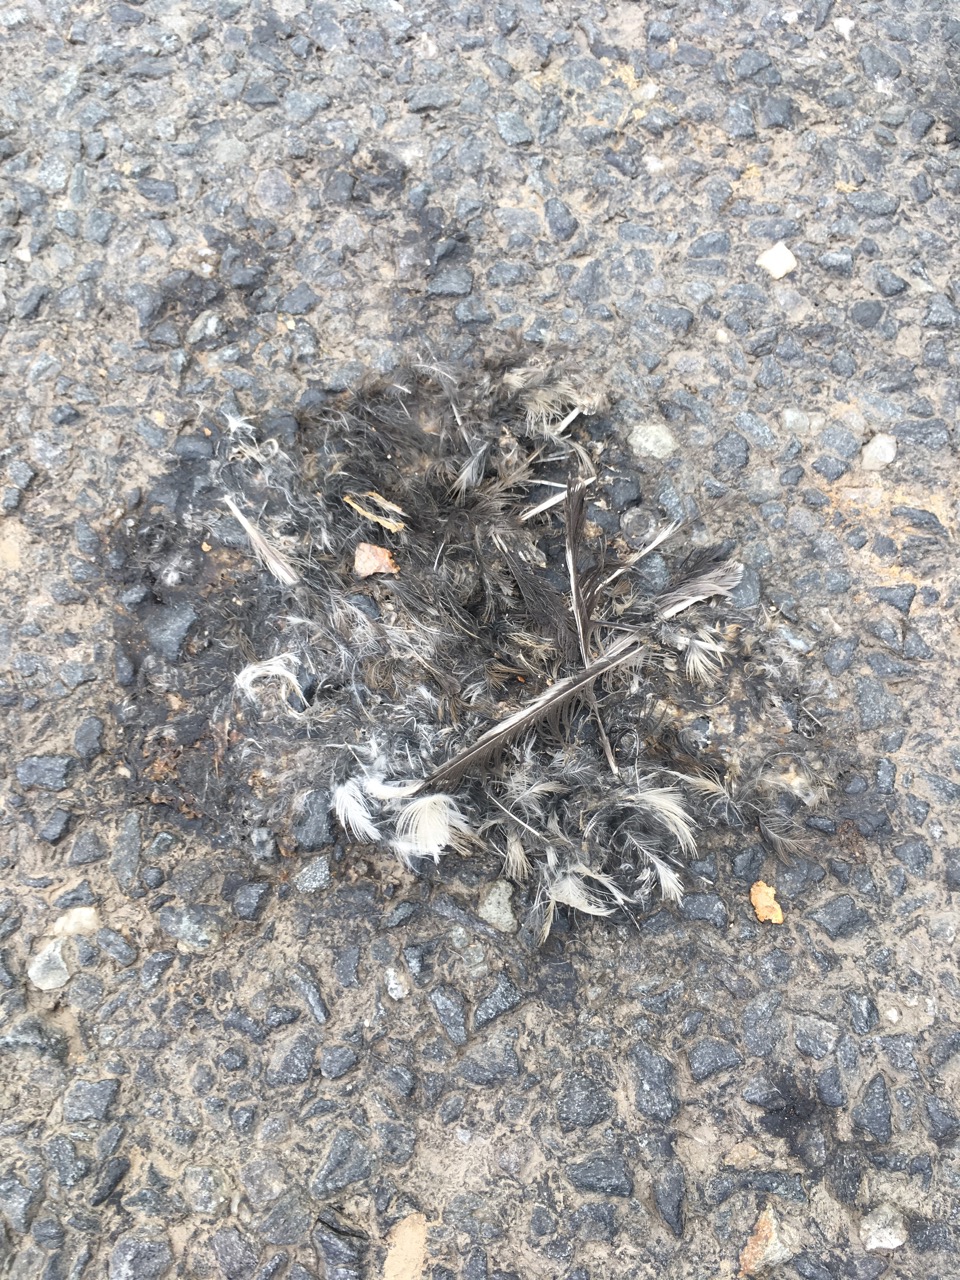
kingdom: Animalia
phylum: Chordata
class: Aves
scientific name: Aves
